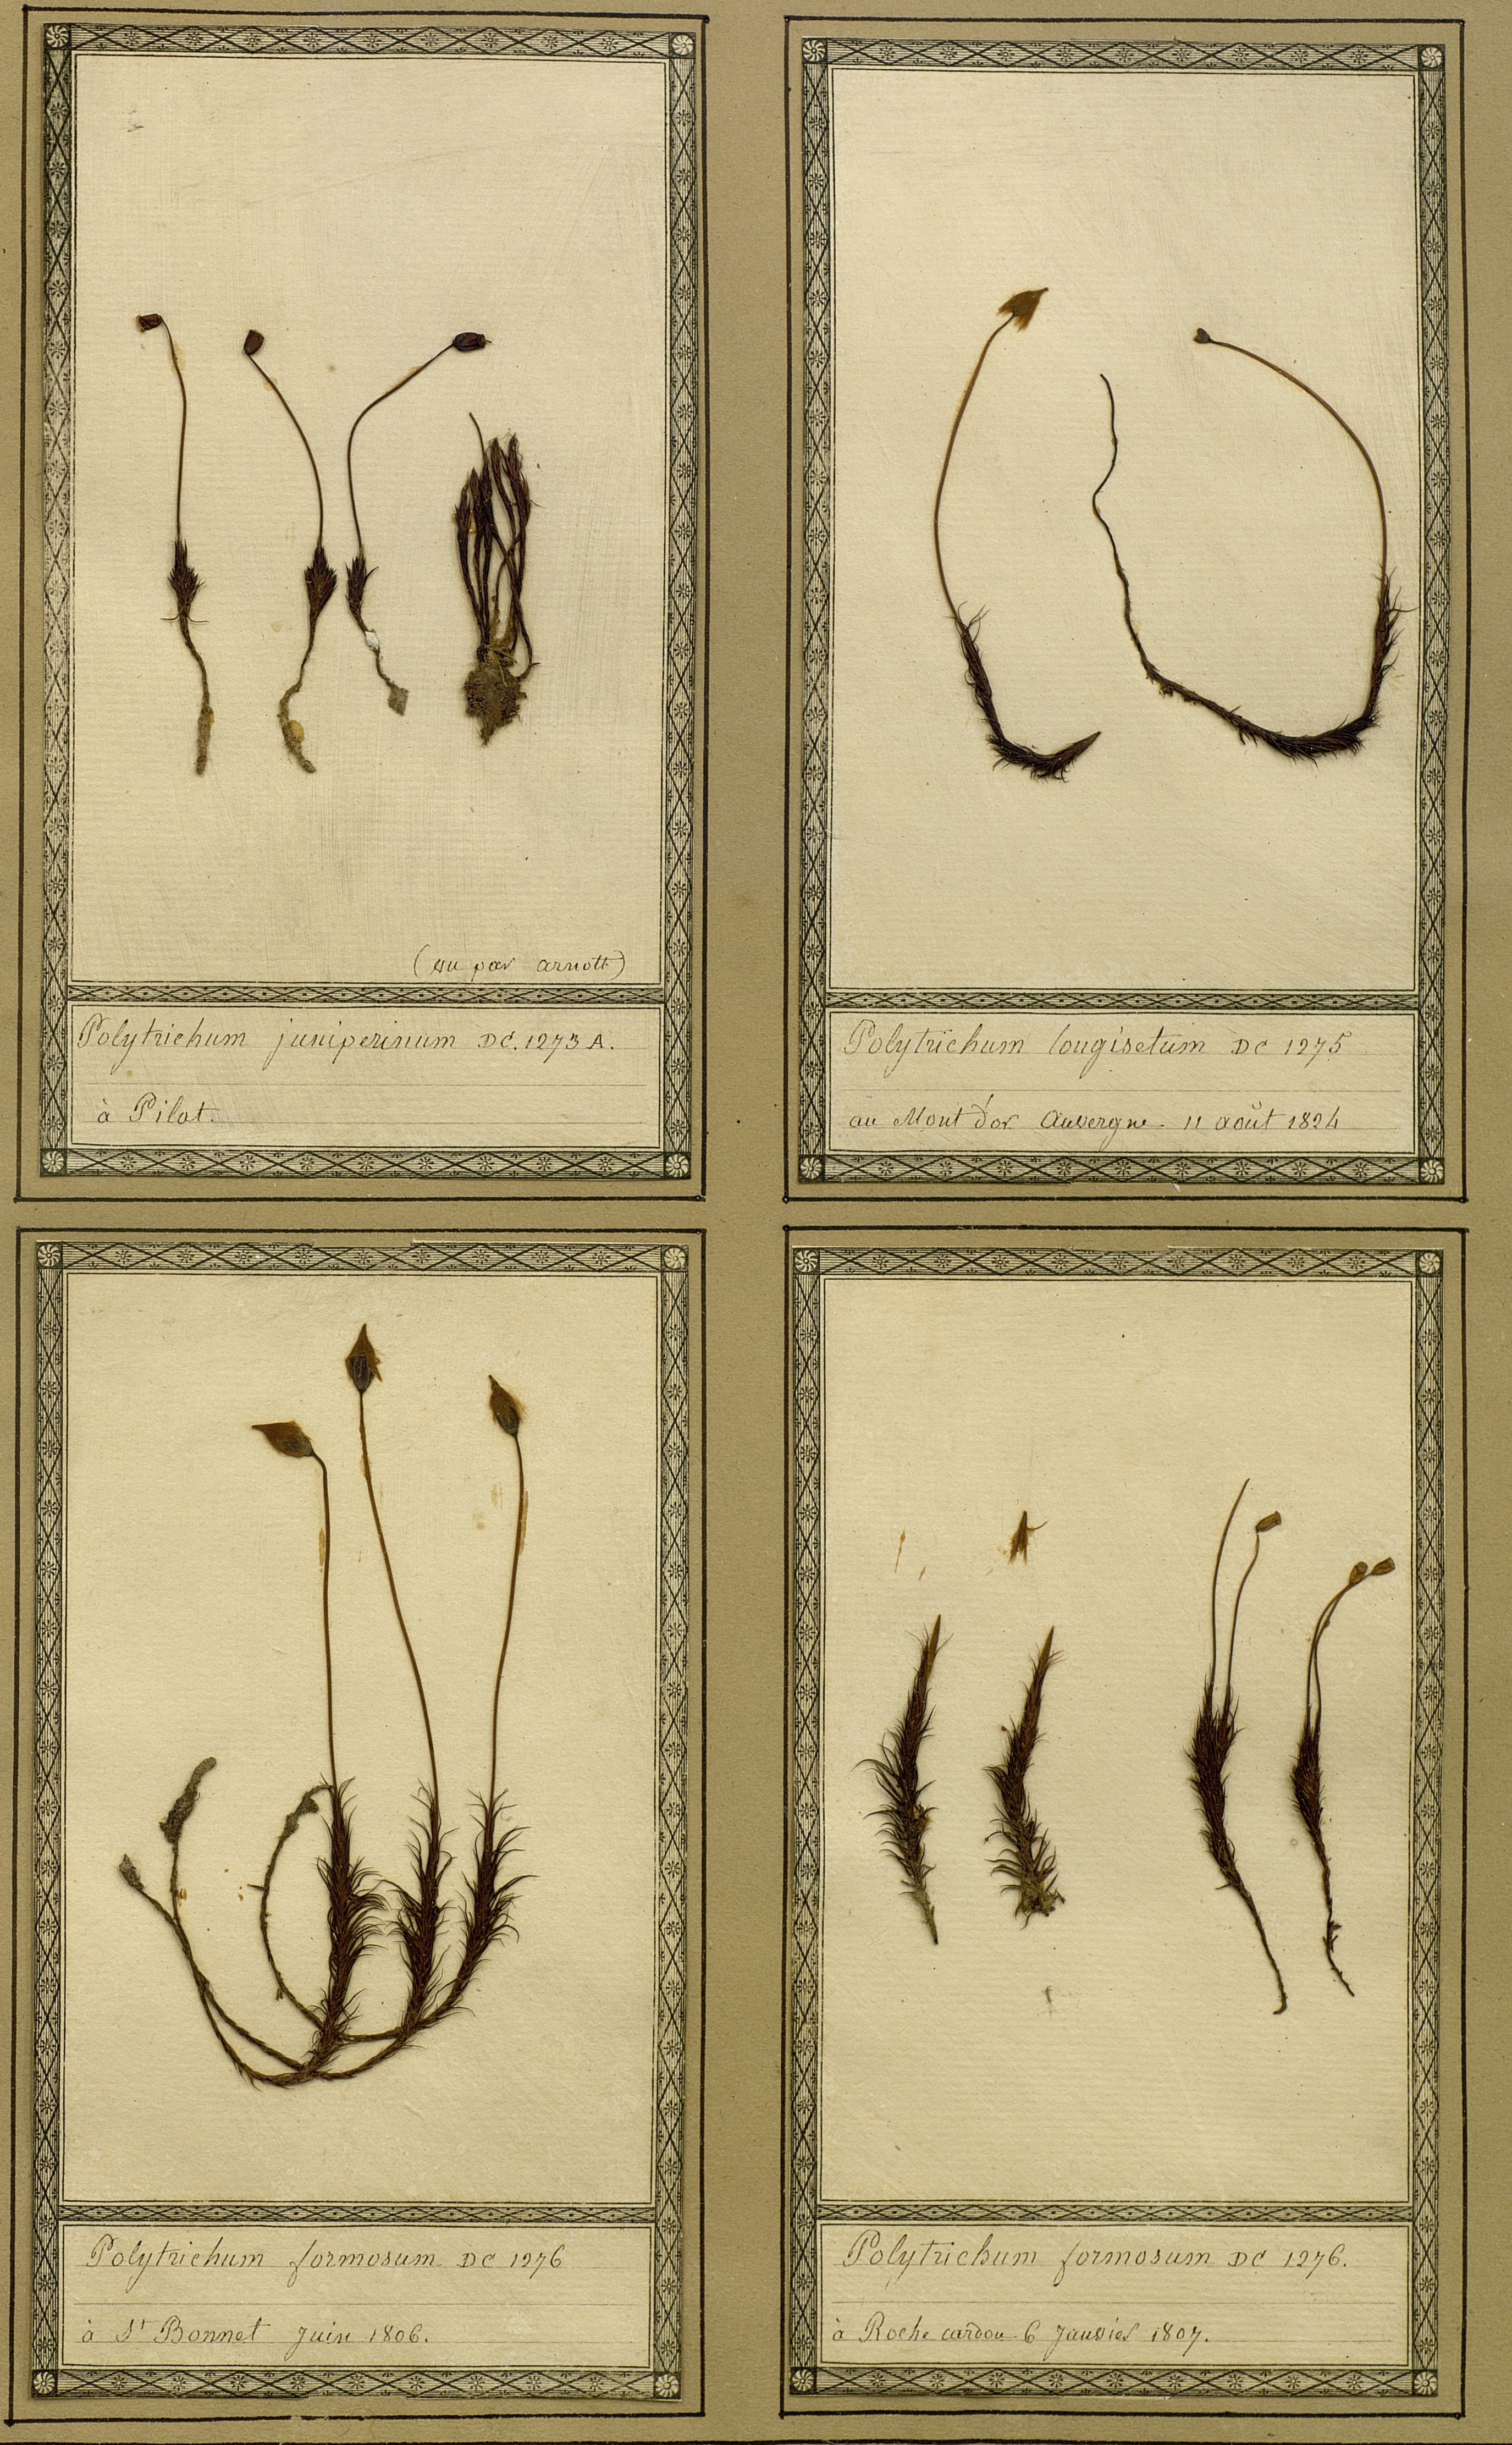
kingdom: Plantae
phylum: Bryophyta
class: Polytrichopsida
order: Polytrichales
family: Polytrichaceae
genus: Polytrichum
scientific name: Polytrichum longisetum
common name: Long-stalked haircap moss
